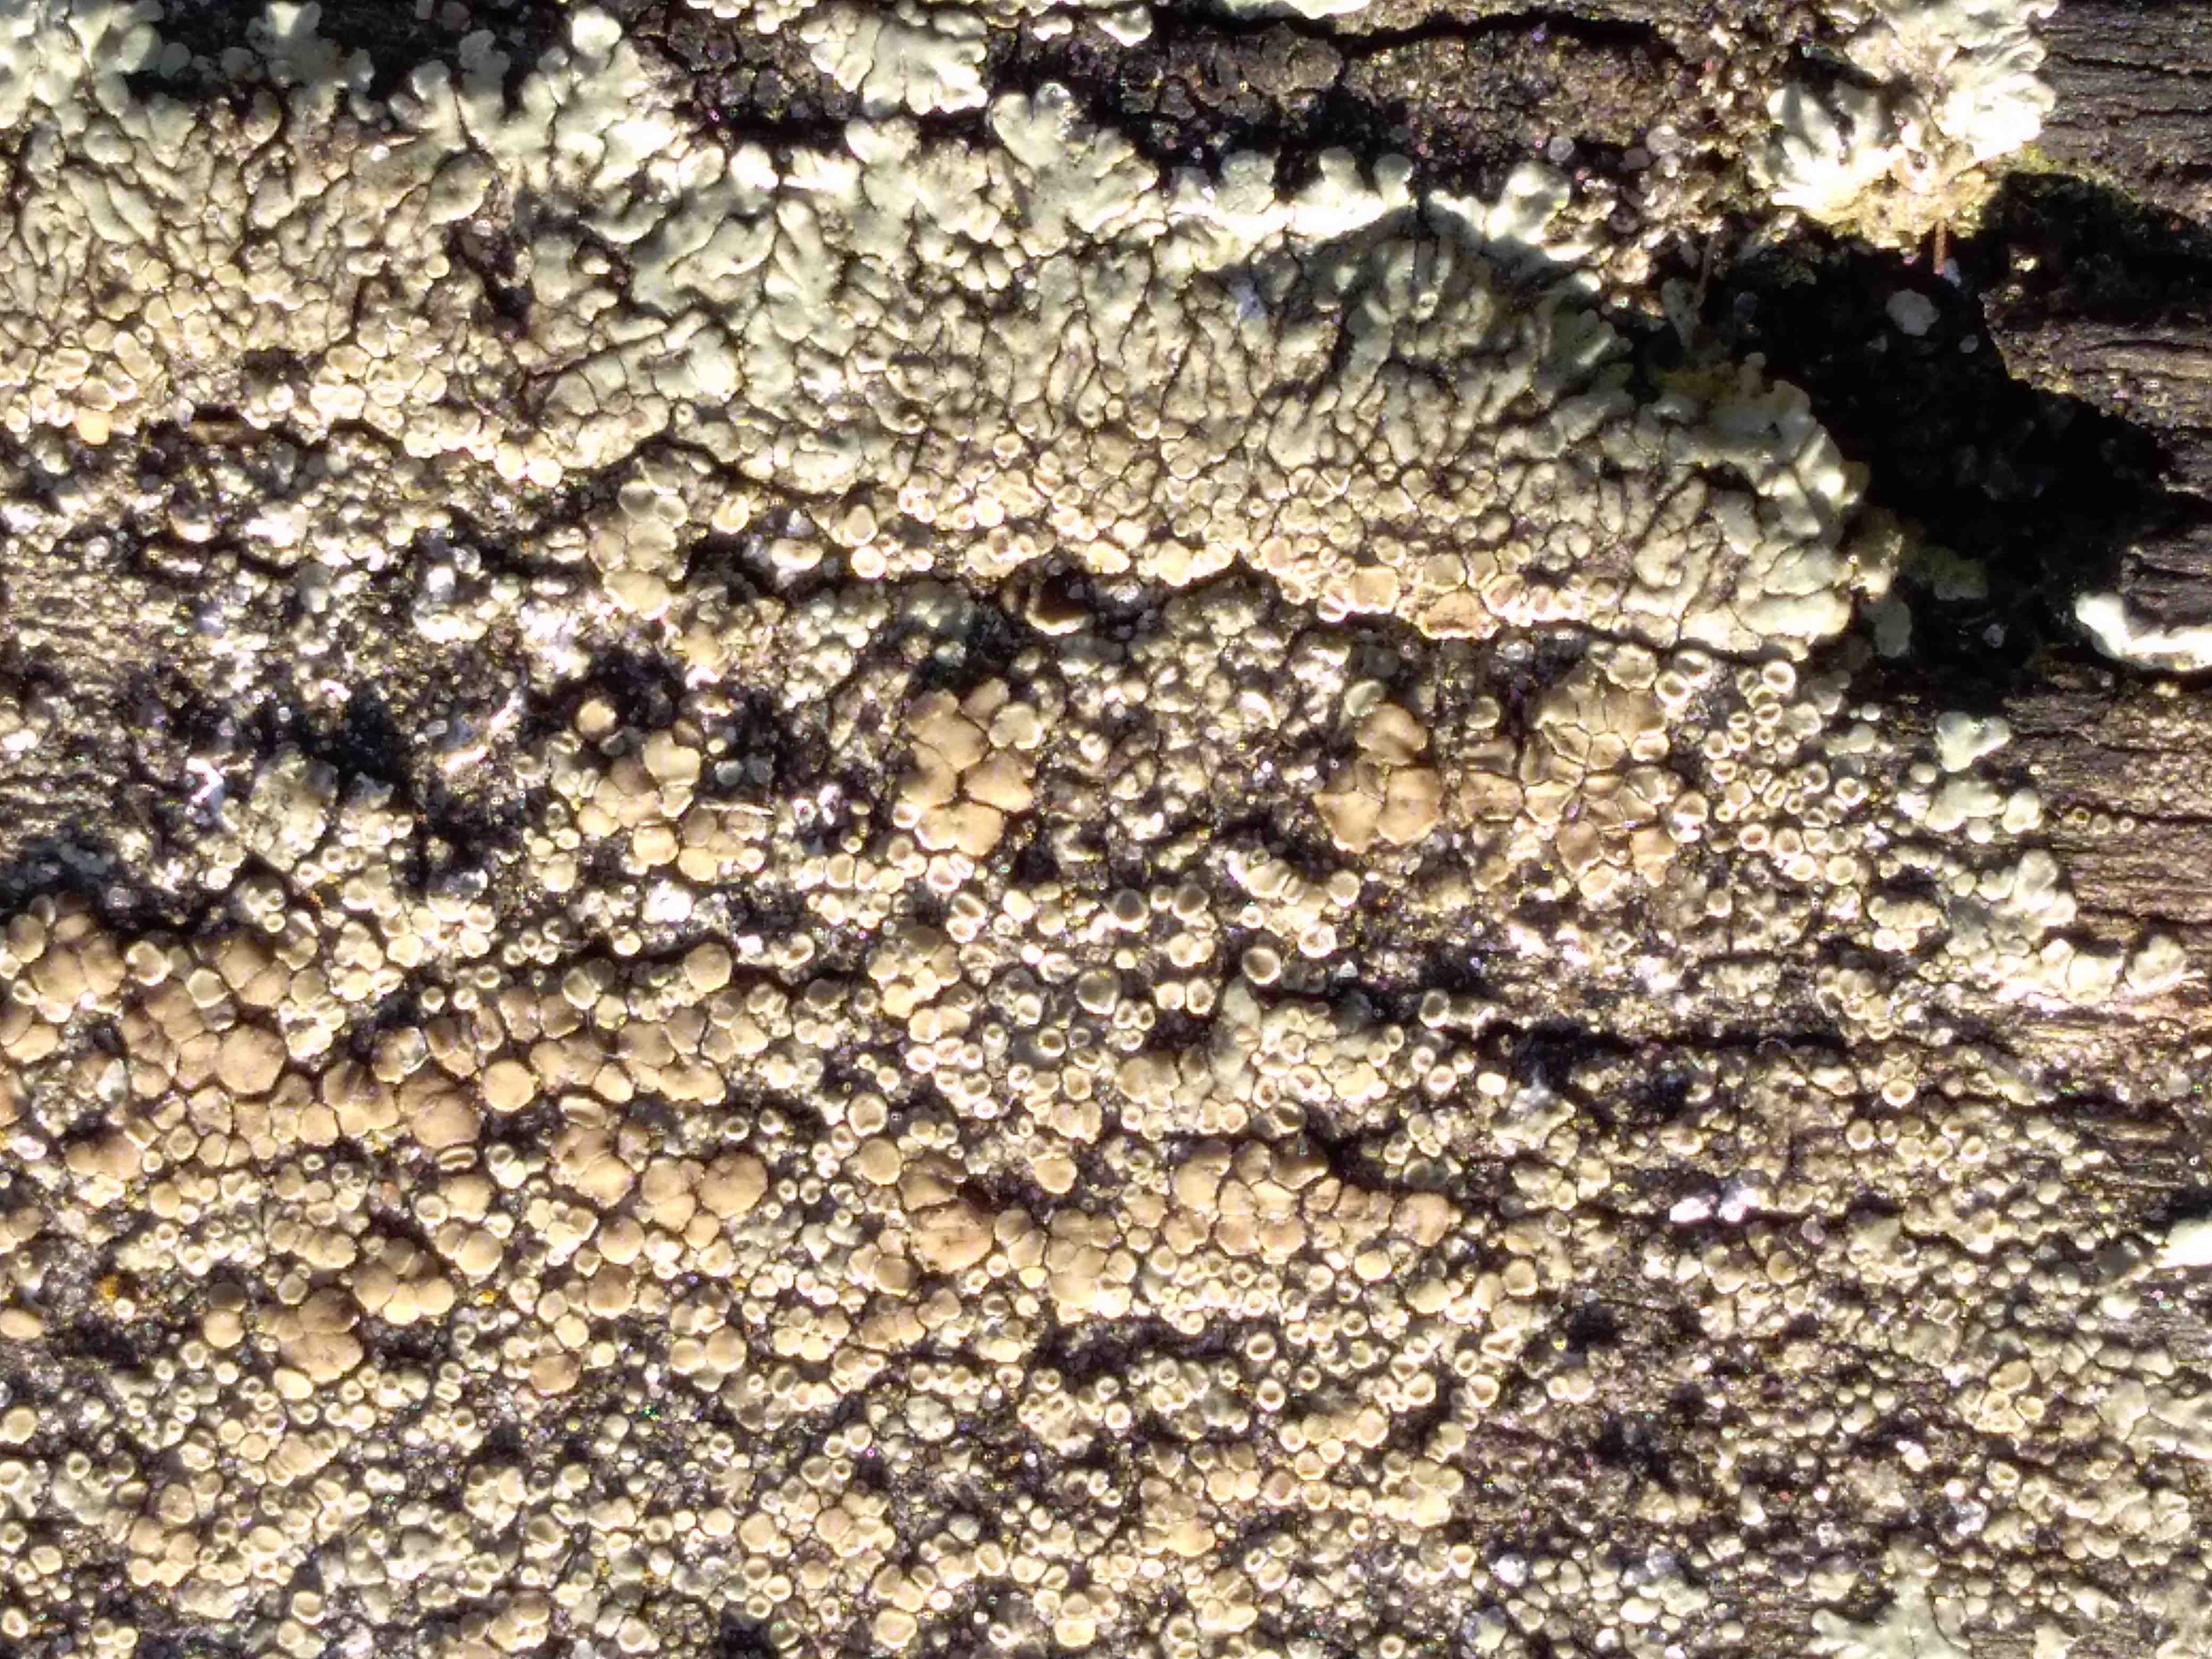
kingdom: Fungi
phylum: Ascomycota
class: Lecanoromycetes
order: Lecanorales
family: Lecanoraceae
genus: Protoparmeliopsis
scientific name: Protoparmeliopsis muralis
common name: randfliget kantskivelav
